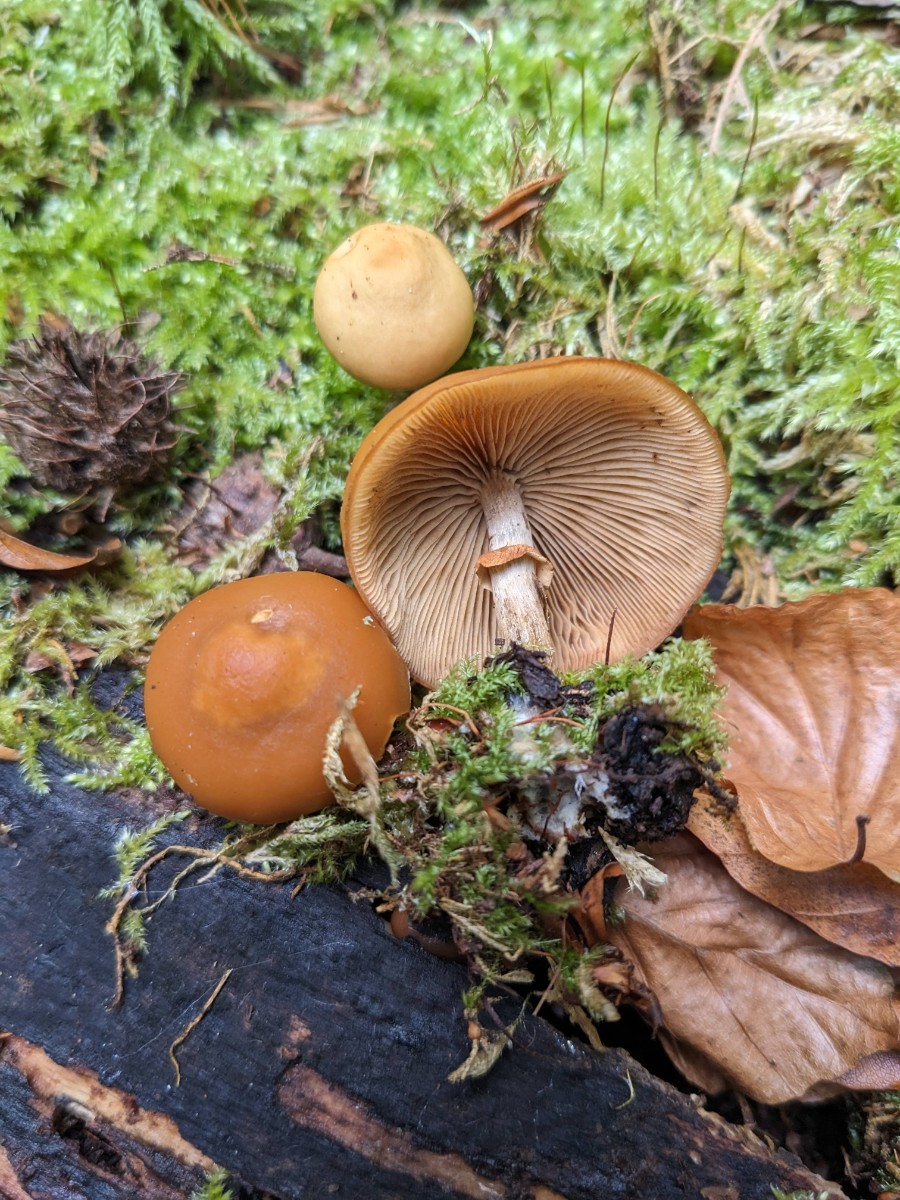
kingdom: Fungi
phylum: Basidiomycota
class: Agaricomycetes
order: Agaricales
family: Hymenogastraceae
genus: Galerina
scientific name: Galerina marginata
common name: randbæltet hjelmhat
